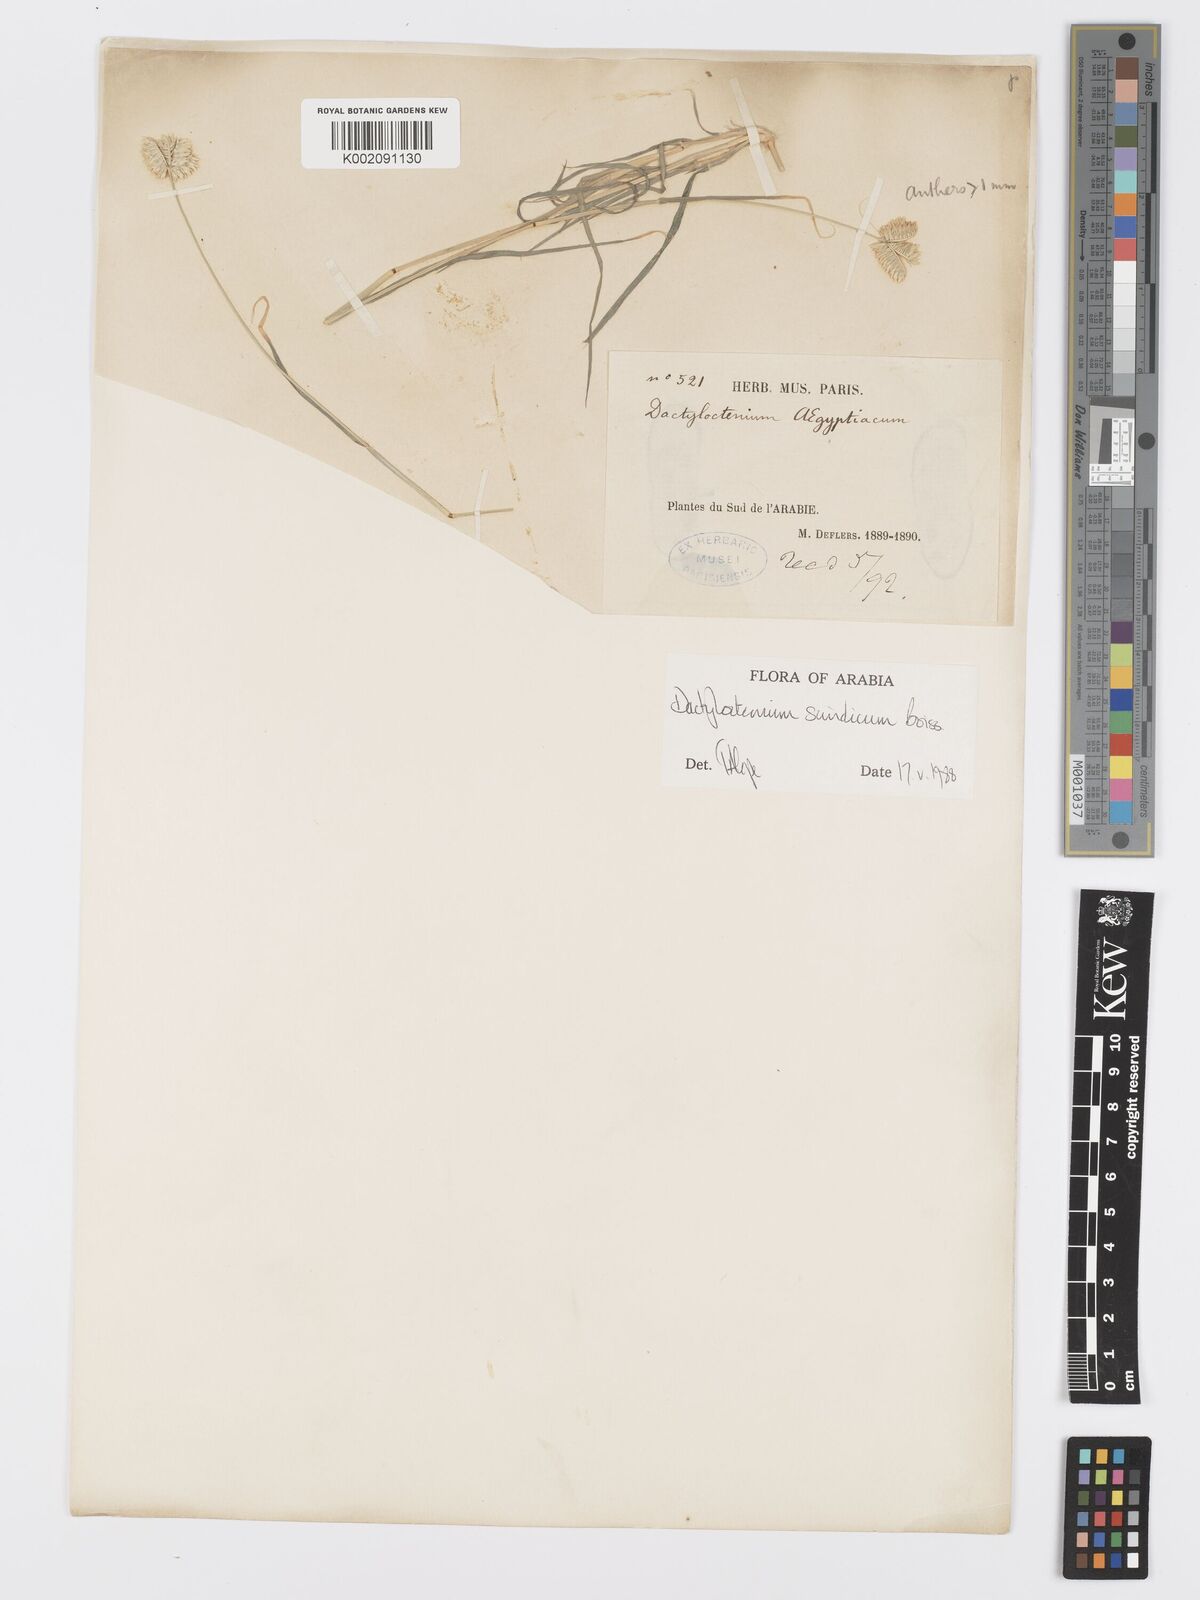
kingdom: Plantae
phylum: Tracheophyta
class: Liliopsida
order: Poales
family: Poaceae
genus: Dactyloctenium
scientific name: Dactyloctenium scindicum
